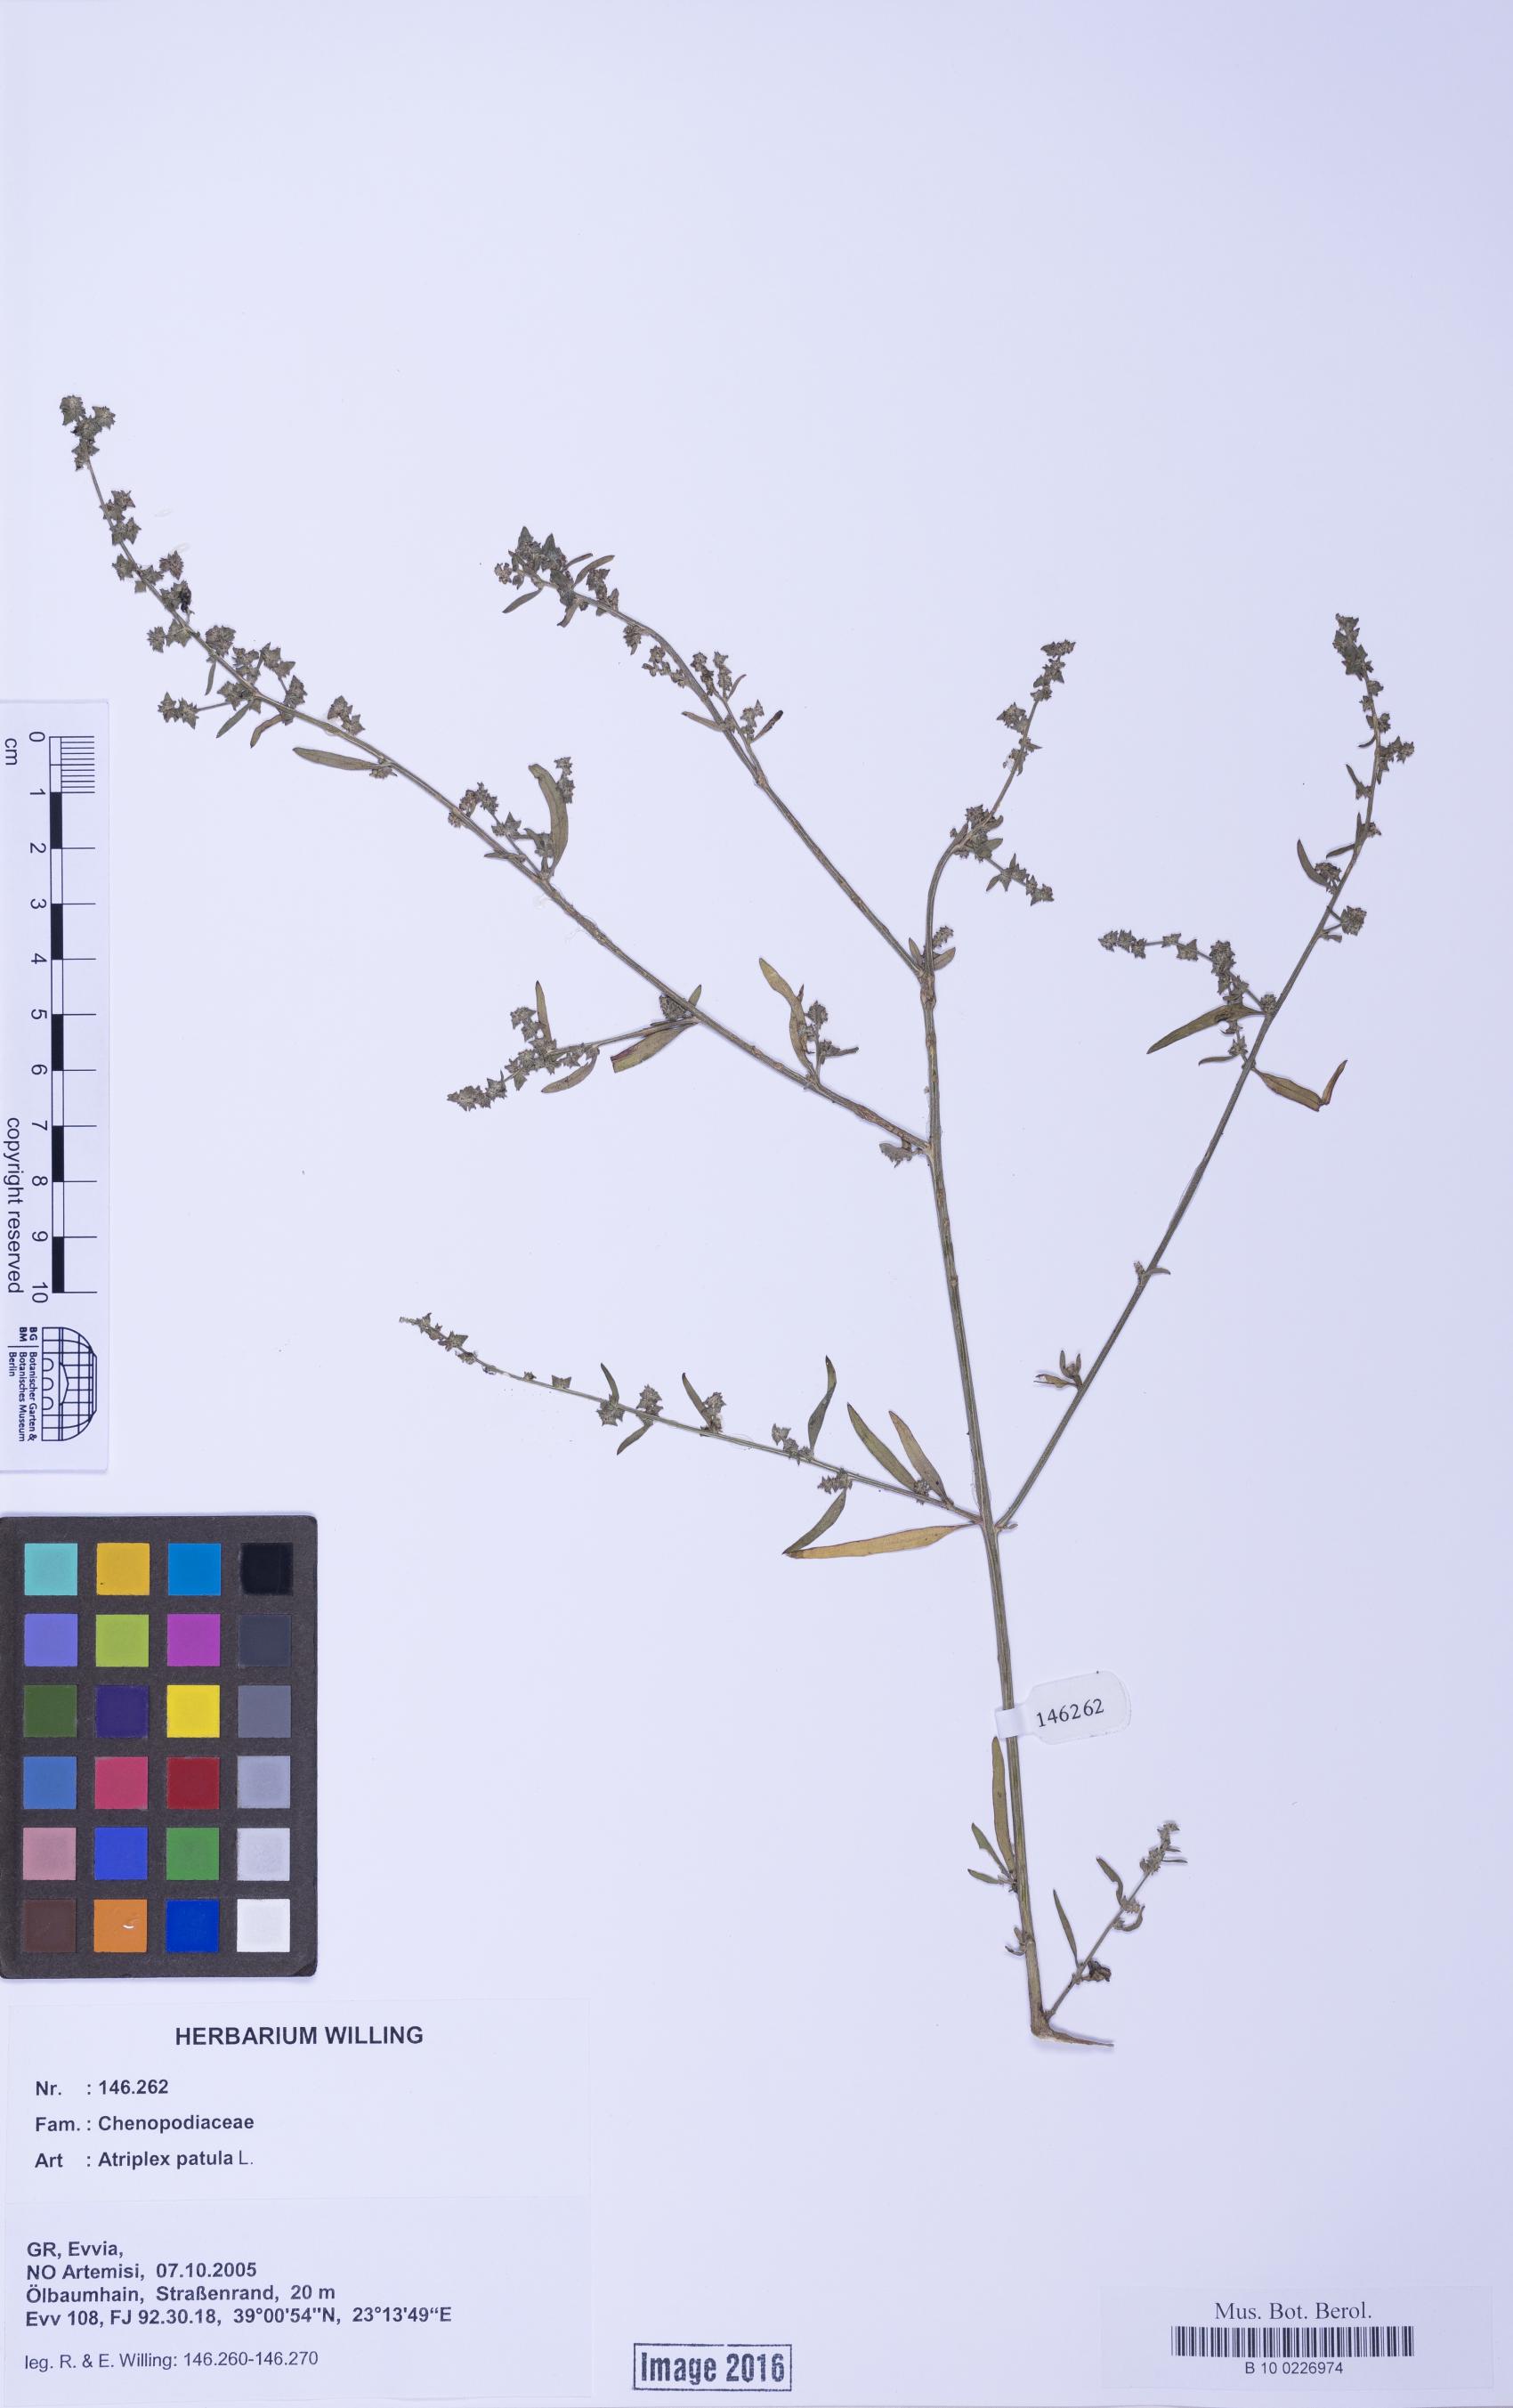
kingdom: Plantae
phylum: Tracheophyta
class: Magnoliopsida
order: Caryophyllales
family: Amaranthaceae
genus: Atriplex
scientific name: Atriplex patula
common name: Common orache
